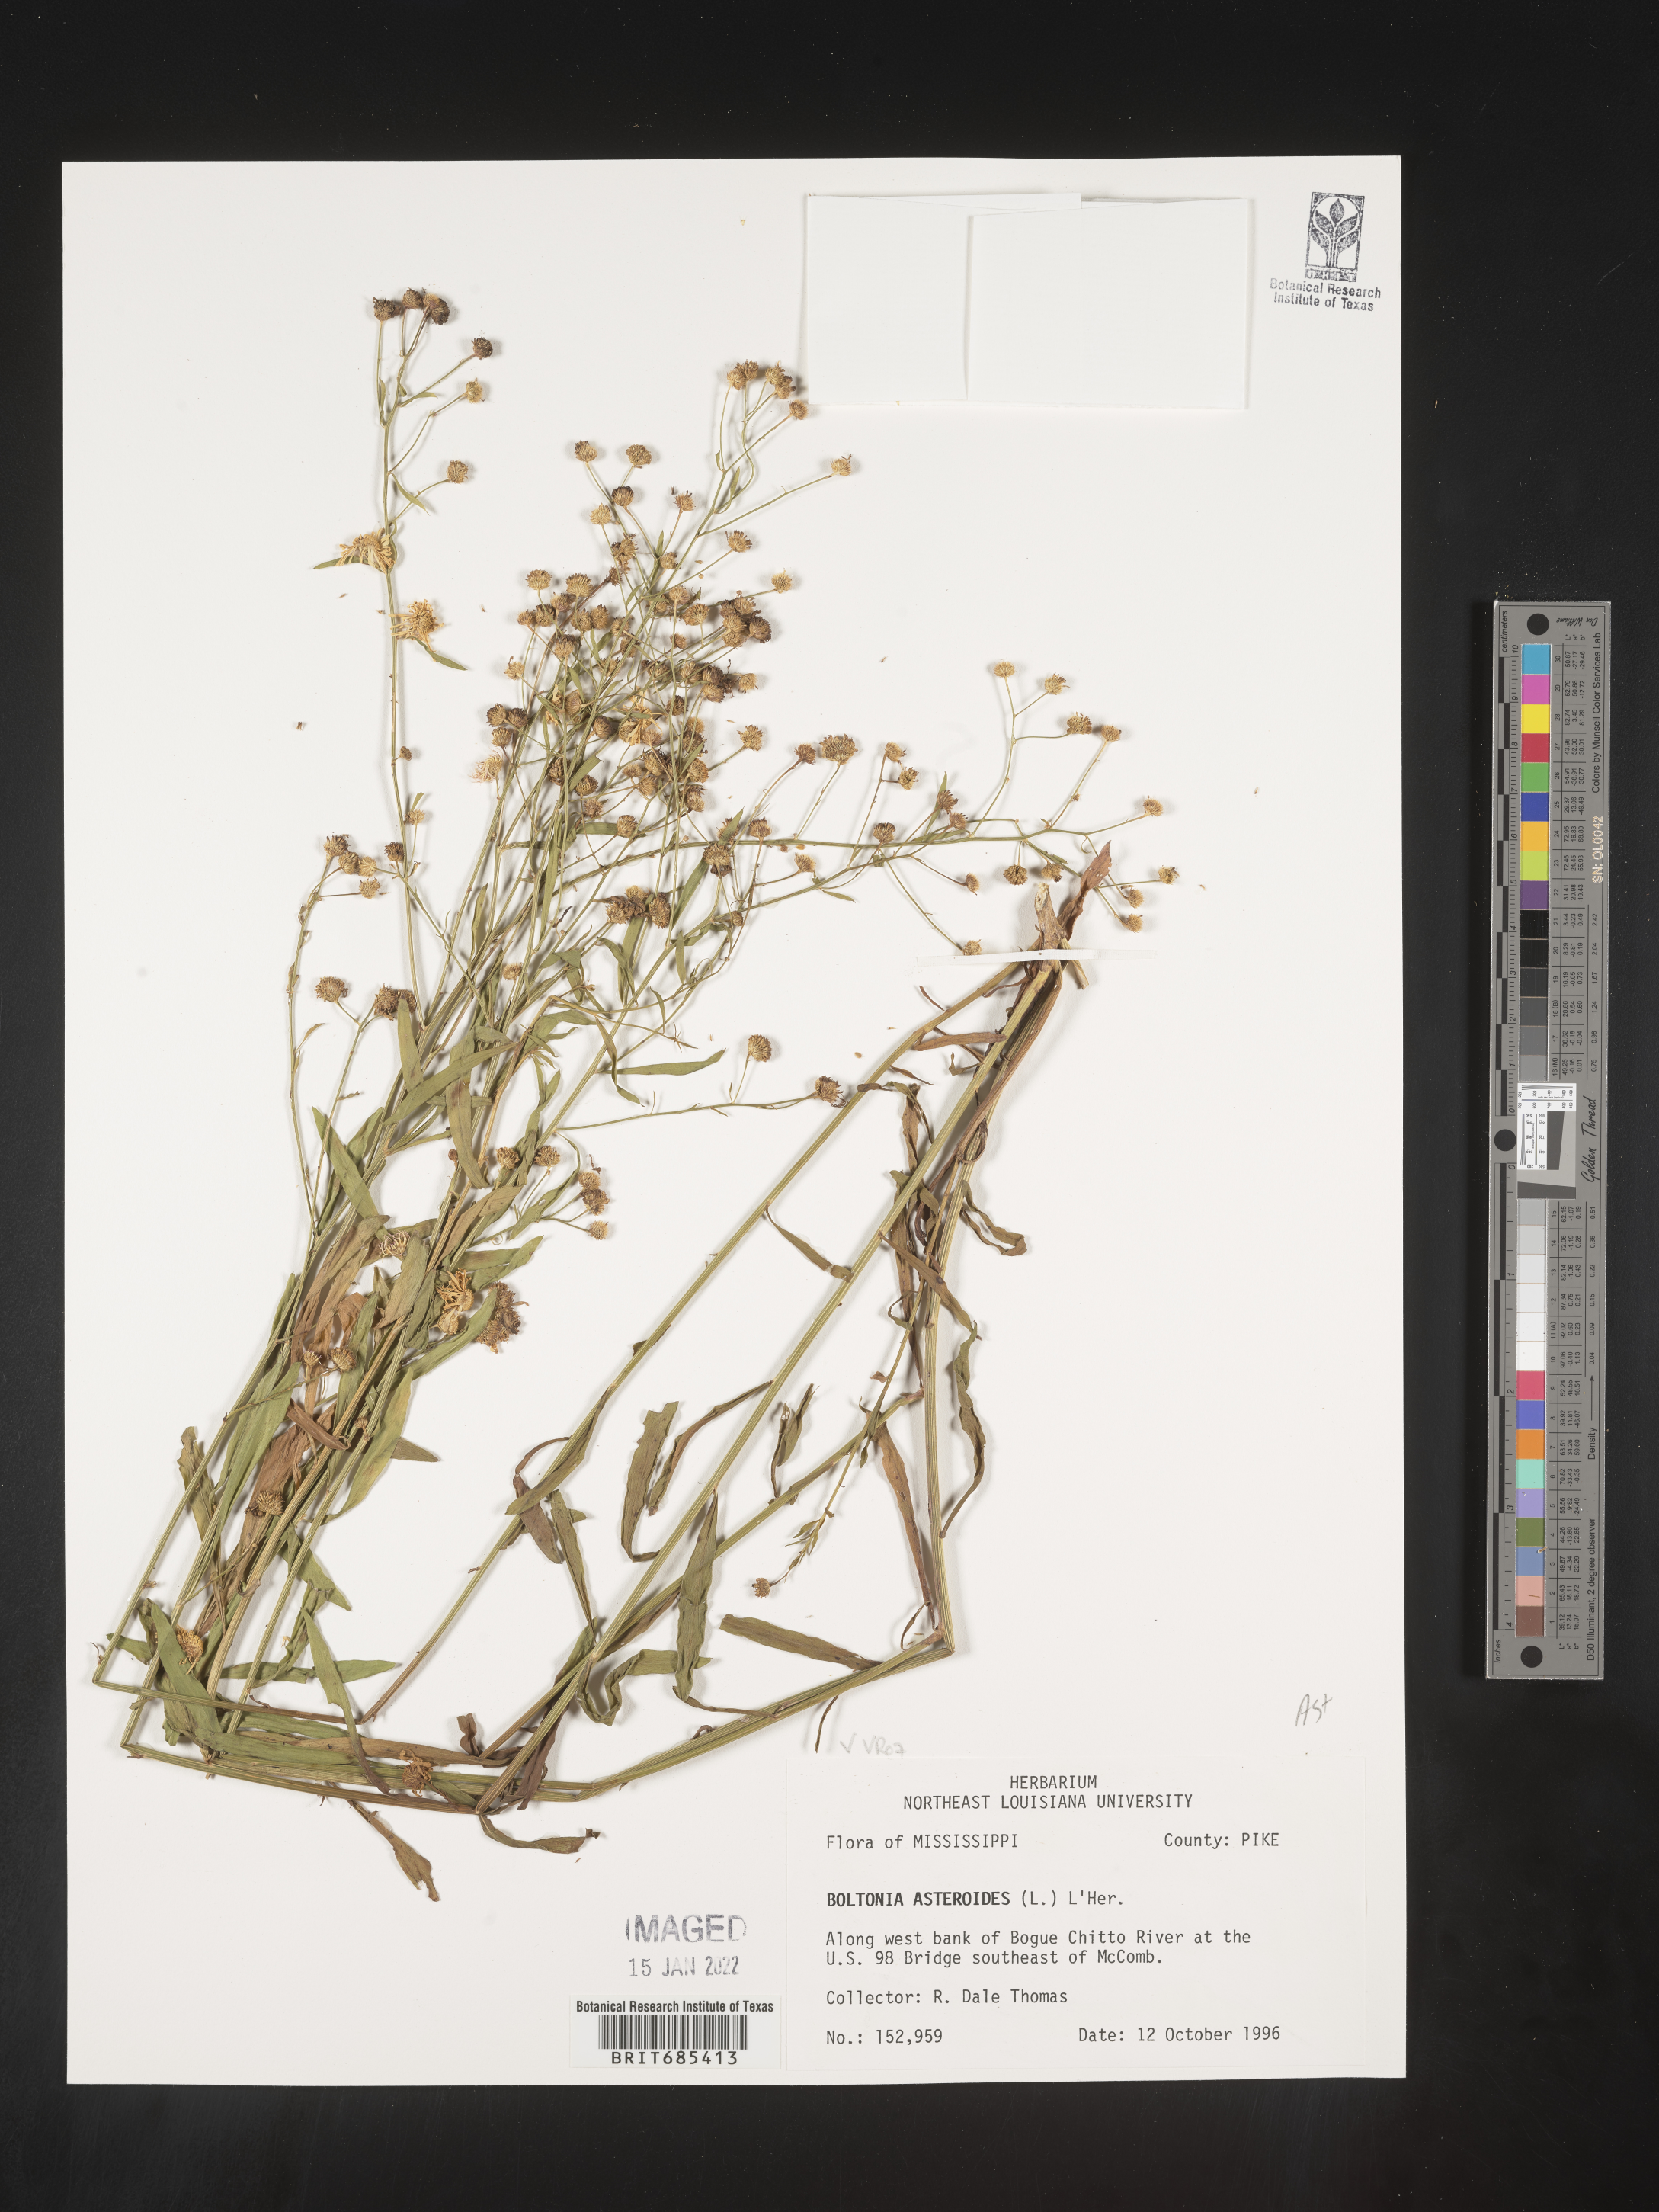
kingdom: Plantae
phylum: Tracheophyta
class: Magnoliopsida
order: Asterales
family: Asteraceae
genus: Boltonia
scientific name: Boltonia asteroides
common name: False chamomile
